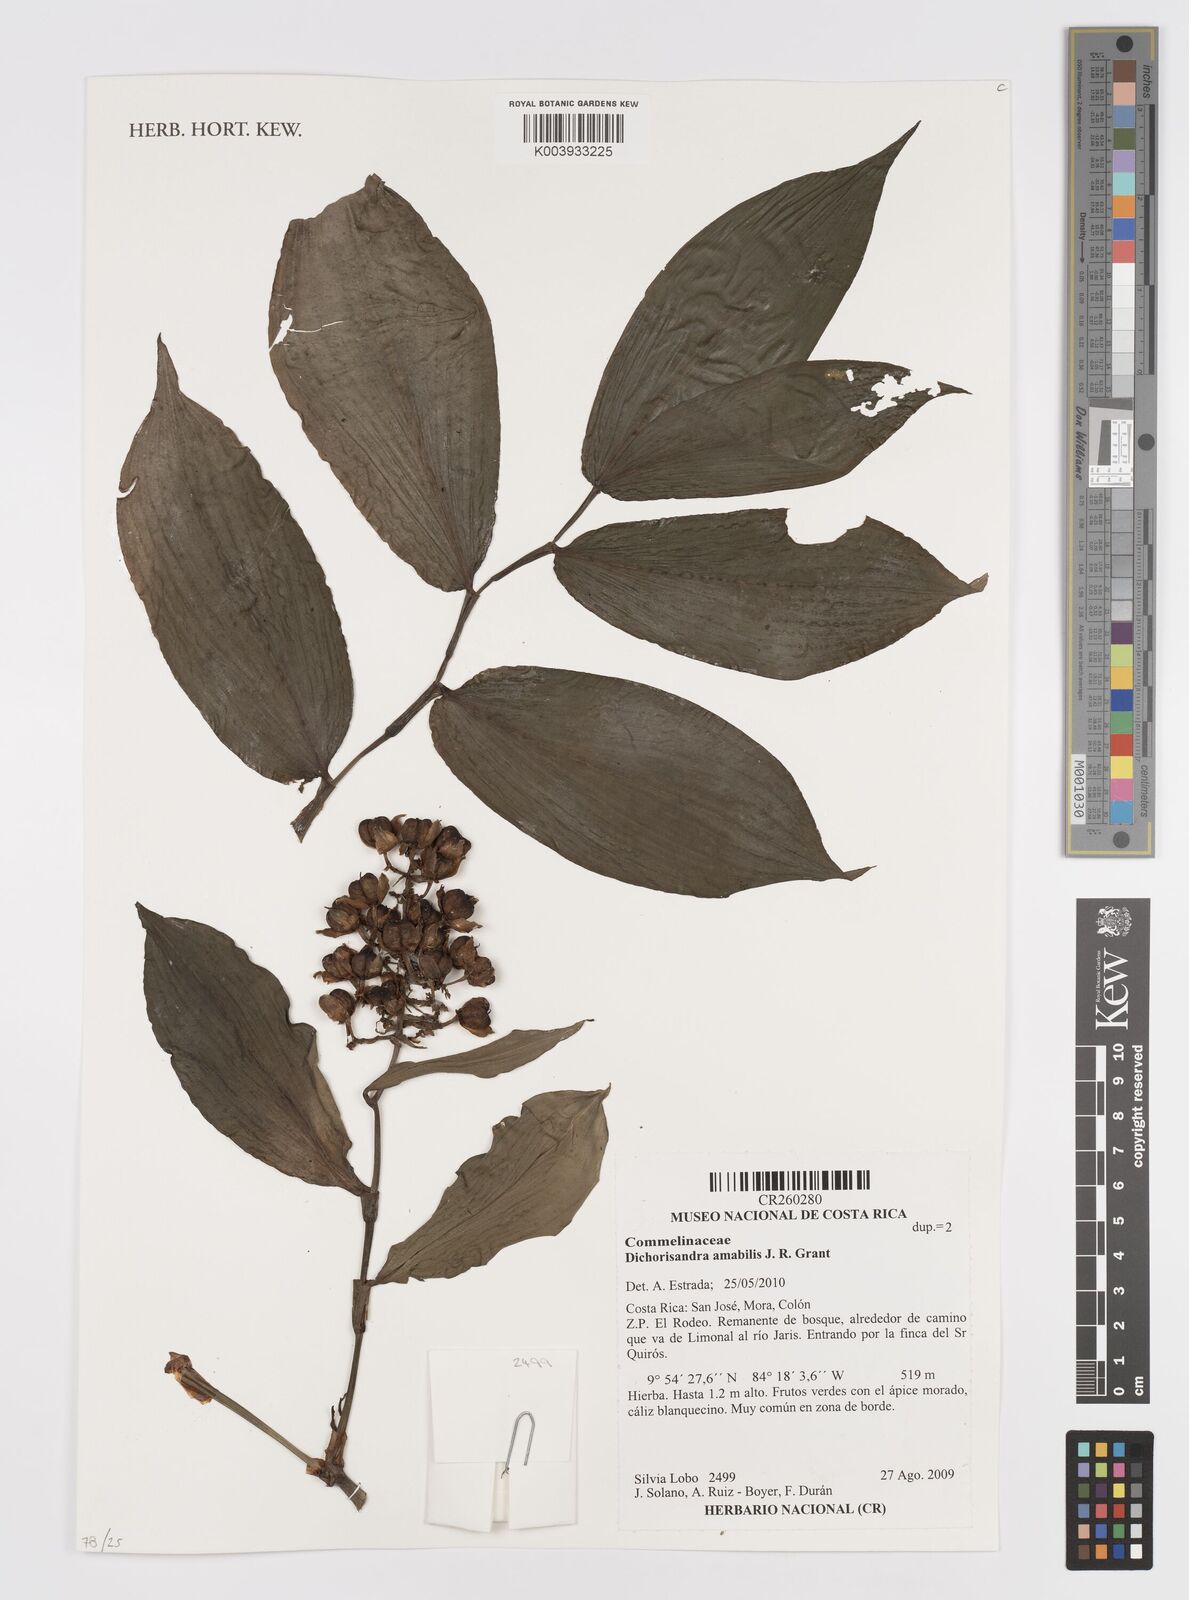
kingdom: Plantae
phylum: Tracheophyta
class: Liliopsida
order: Commelinales
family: Commelinaceae
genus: Dichorisandra
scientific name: Dichorisandra amabilis
